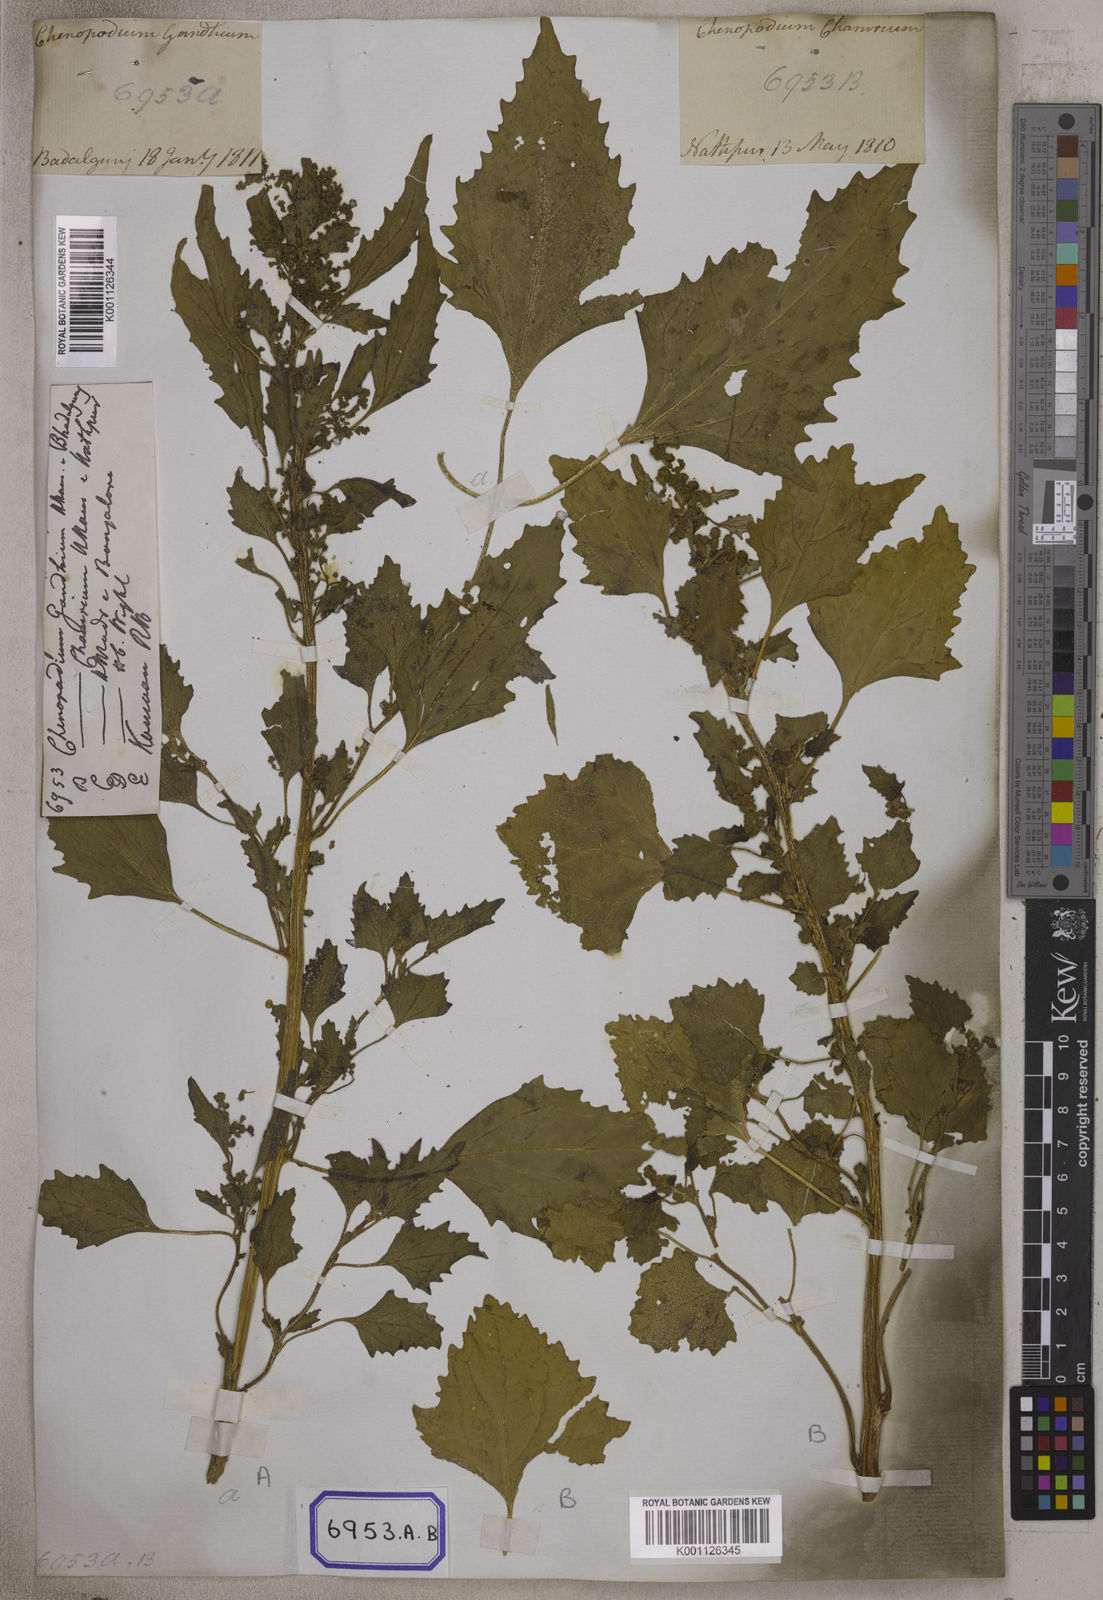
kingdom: Plantae
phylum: Tracheophyta
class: Magnoliopsida
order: Caryophyllales
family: Amaranthaceae
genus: Chenopodiastrum
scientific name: Chenopodiastrum murale
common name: Sowbane
